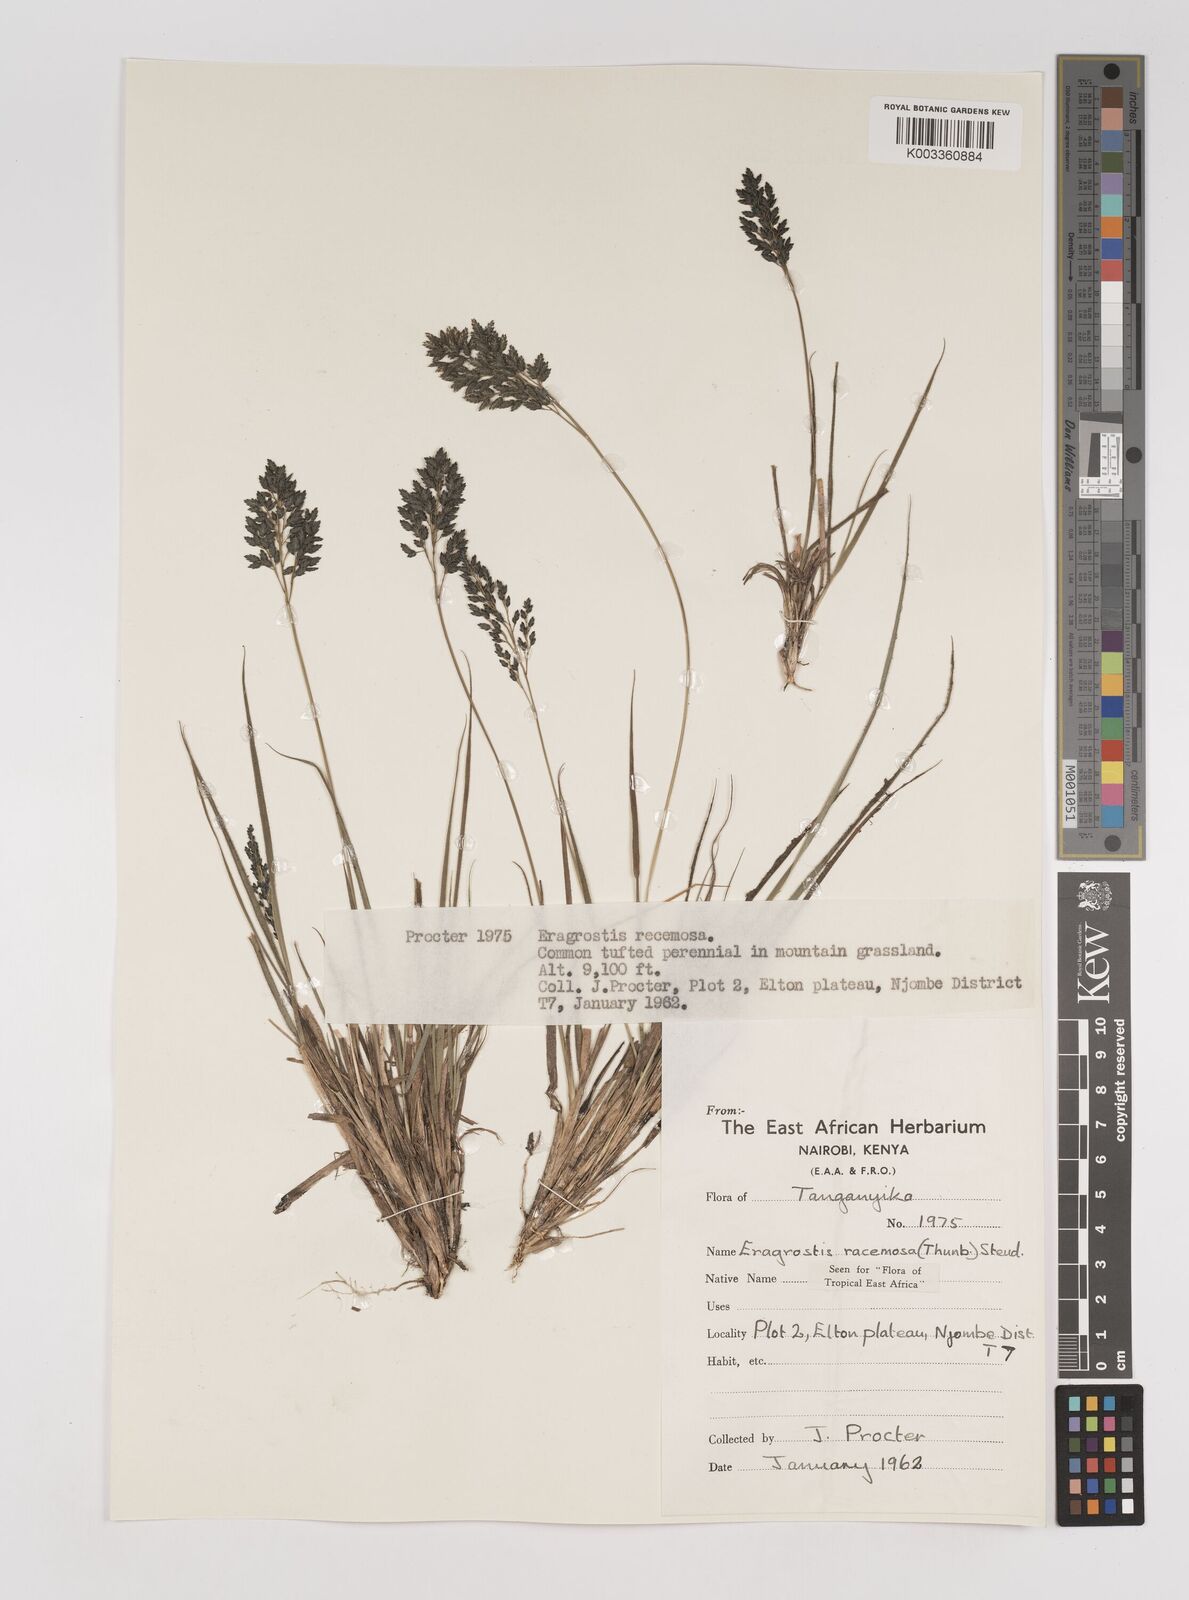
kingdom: Plantae
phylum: Tracheophyta
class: Liliopsida
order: Poales
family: Poaceae
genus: Eragrostis
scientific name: Eragrostis racemosa
